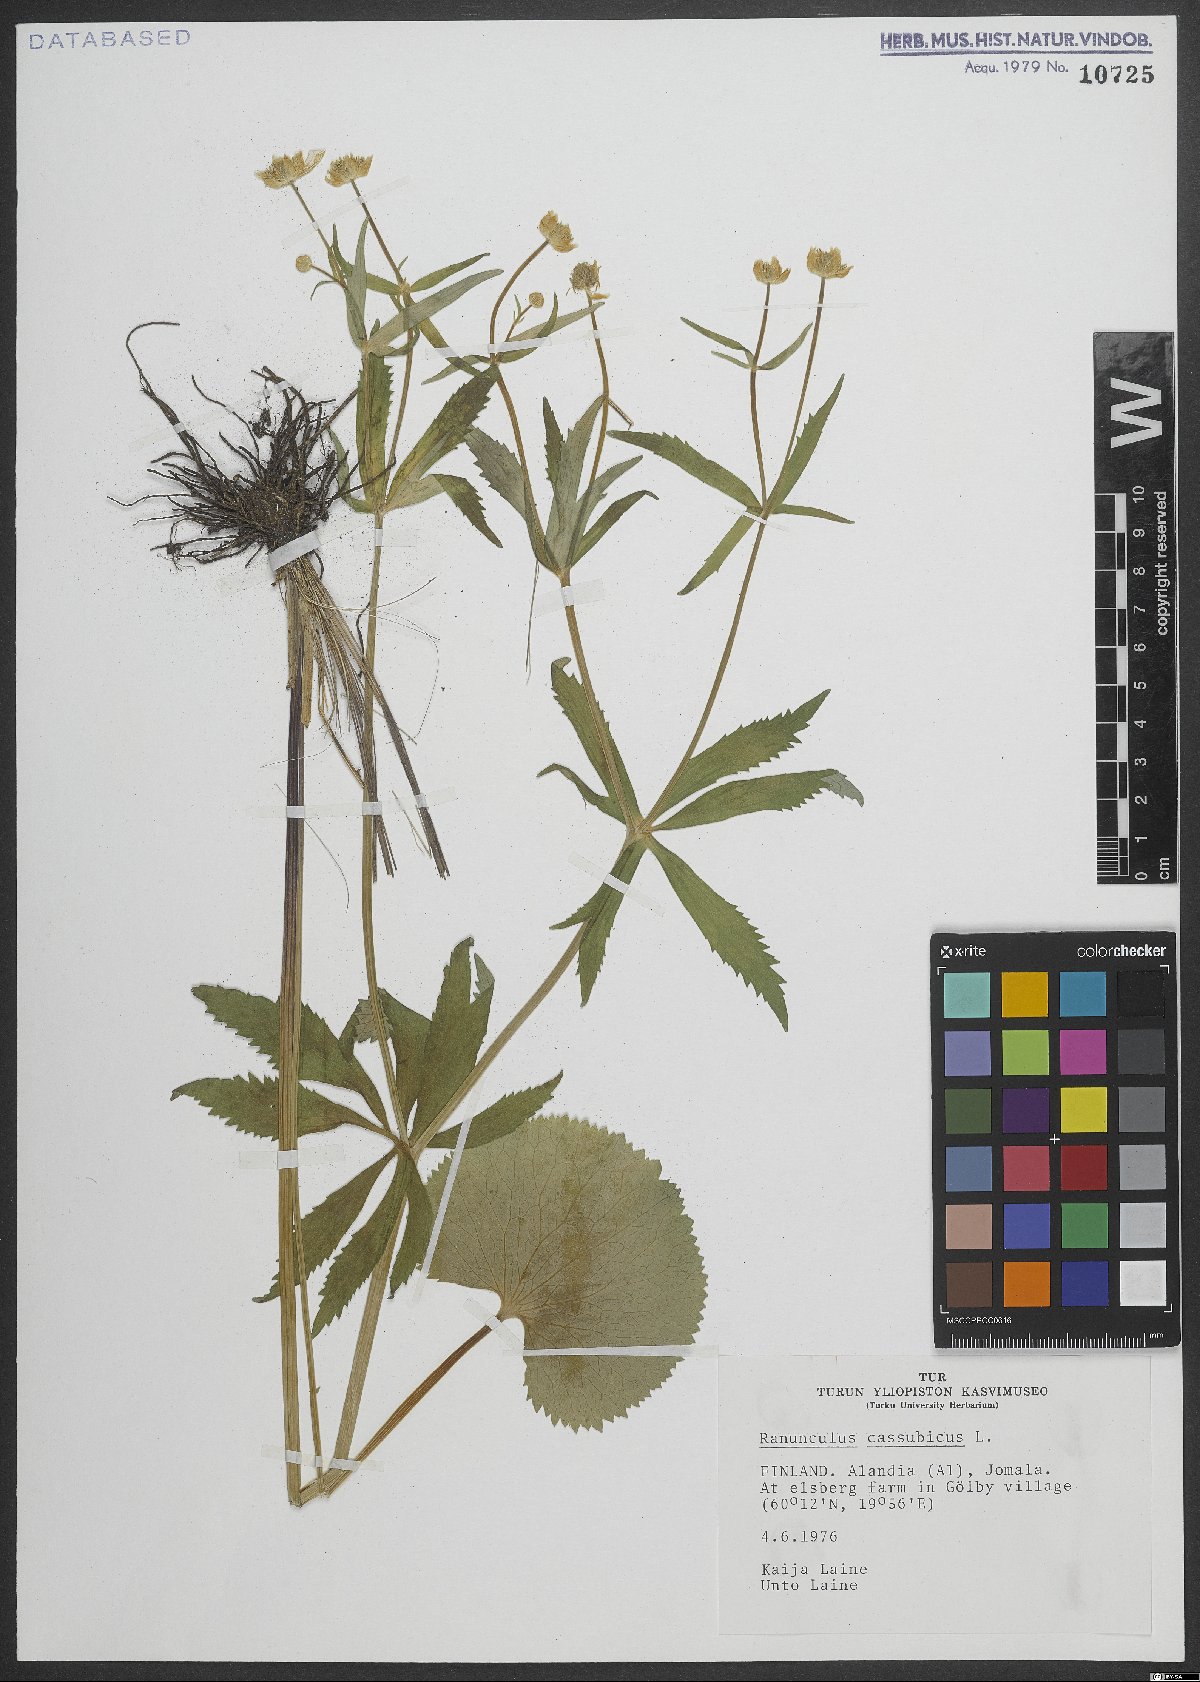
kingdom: Plantae
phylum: Tracheophyta
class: Magnoliopsida
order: Ranunculales
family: Ranunculaceae
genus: Ranunculus
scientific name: Ranunculus cassubicus
